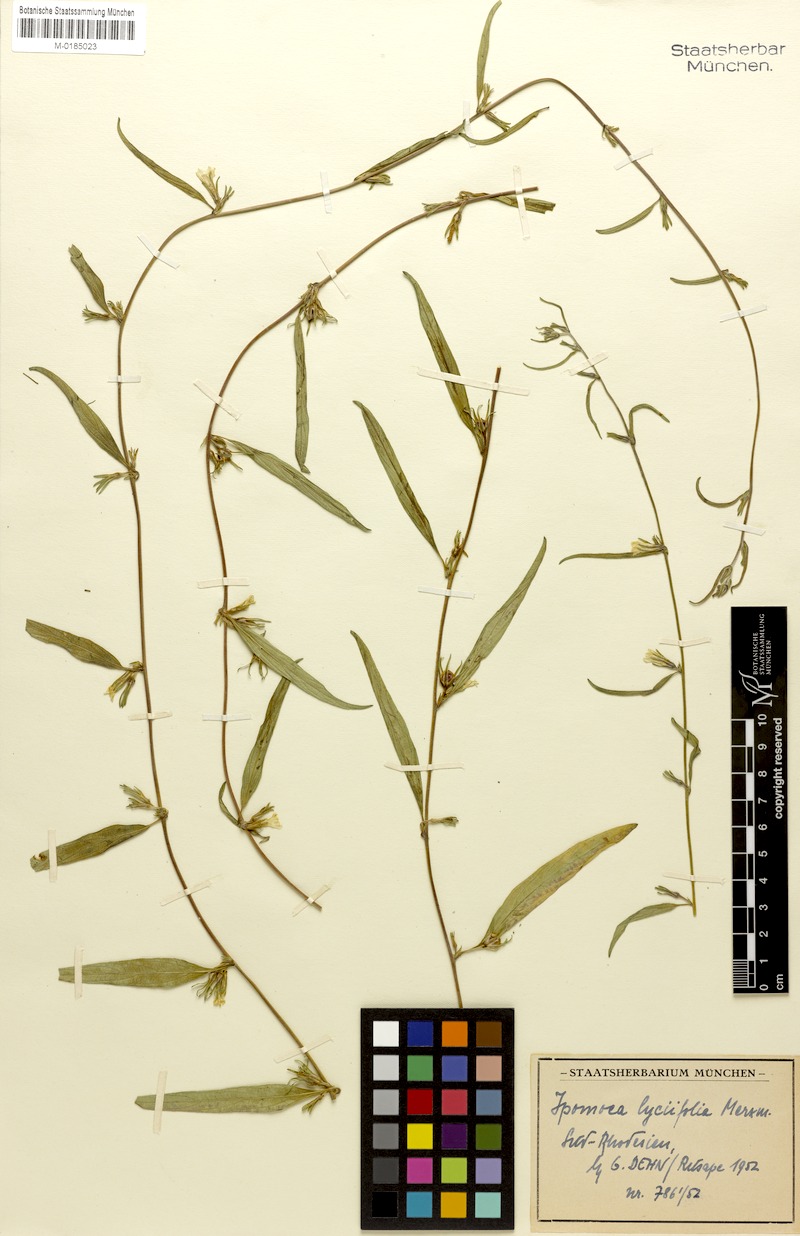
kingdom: Plantae
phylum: Tracheophyta
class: Magnoliopsida
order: Solanales
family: Convolvulaceae
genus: Ipomoea
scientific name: Ipomoea gracilisepala
